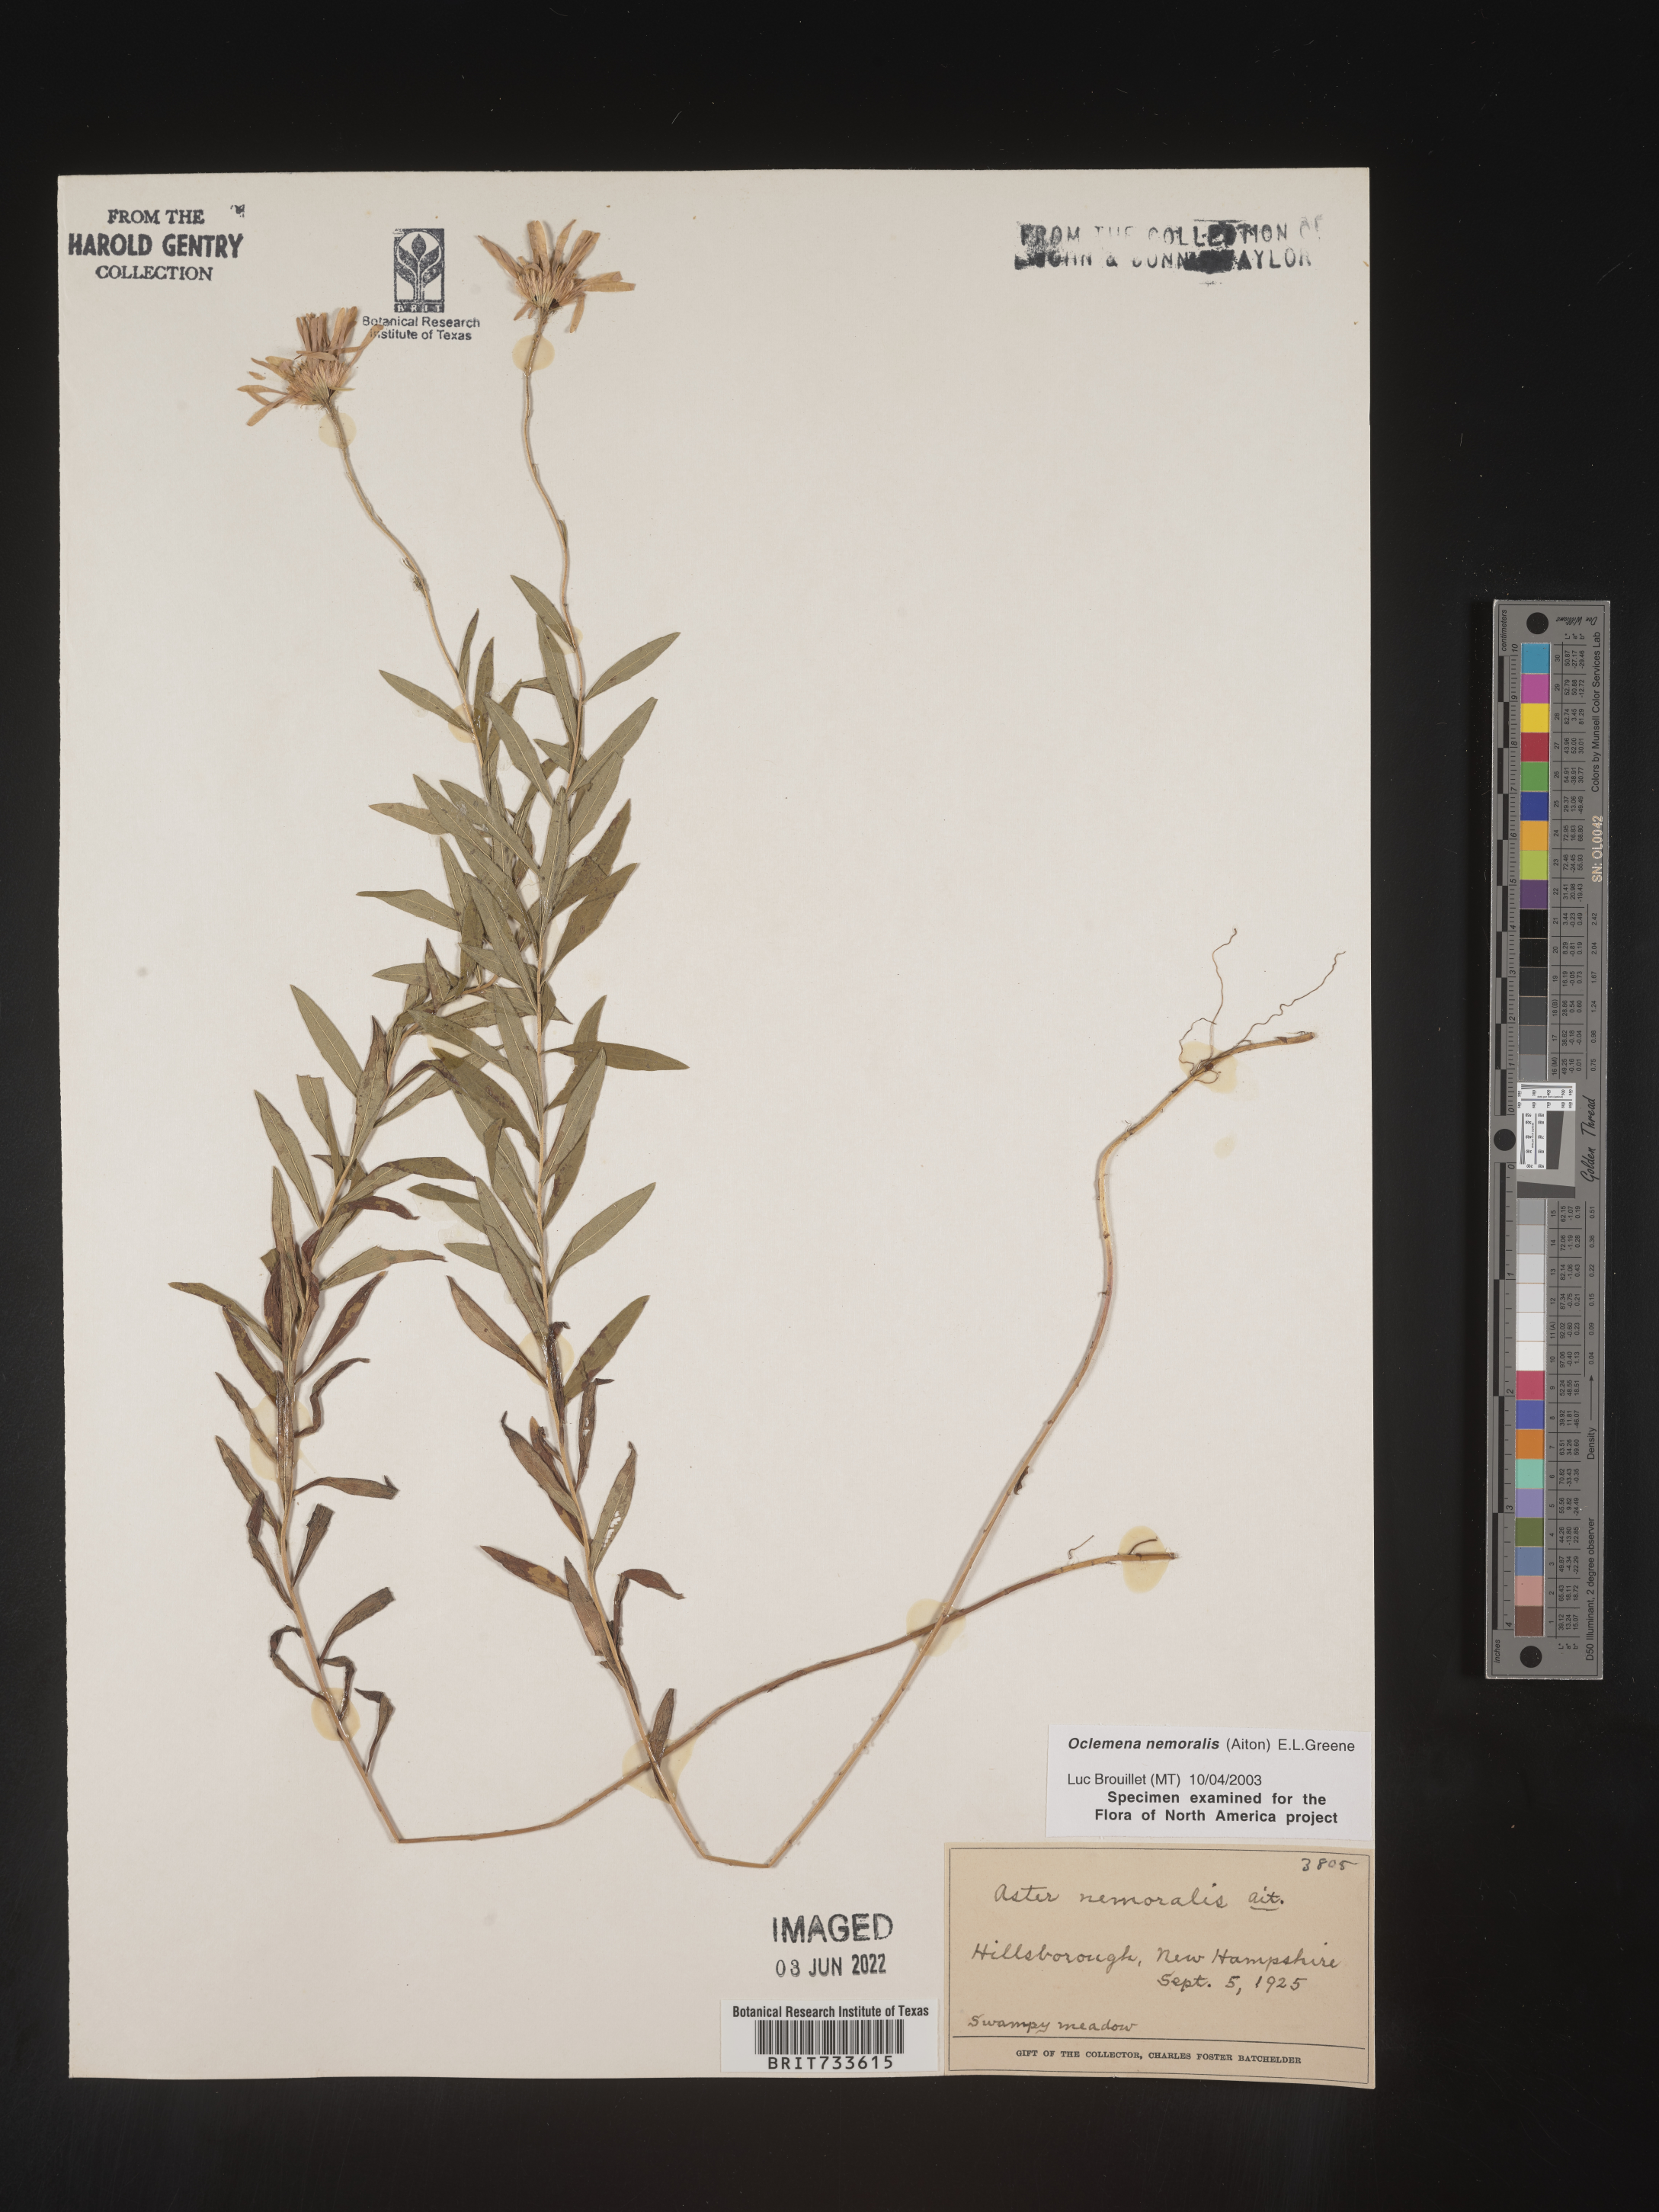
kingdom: Plantae
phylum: Tracheophyta
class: Magnoliopsida
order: Asterales
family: Asteraceae
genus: Oclemena
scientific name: Oclemena nemoralis
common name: Bog aster
